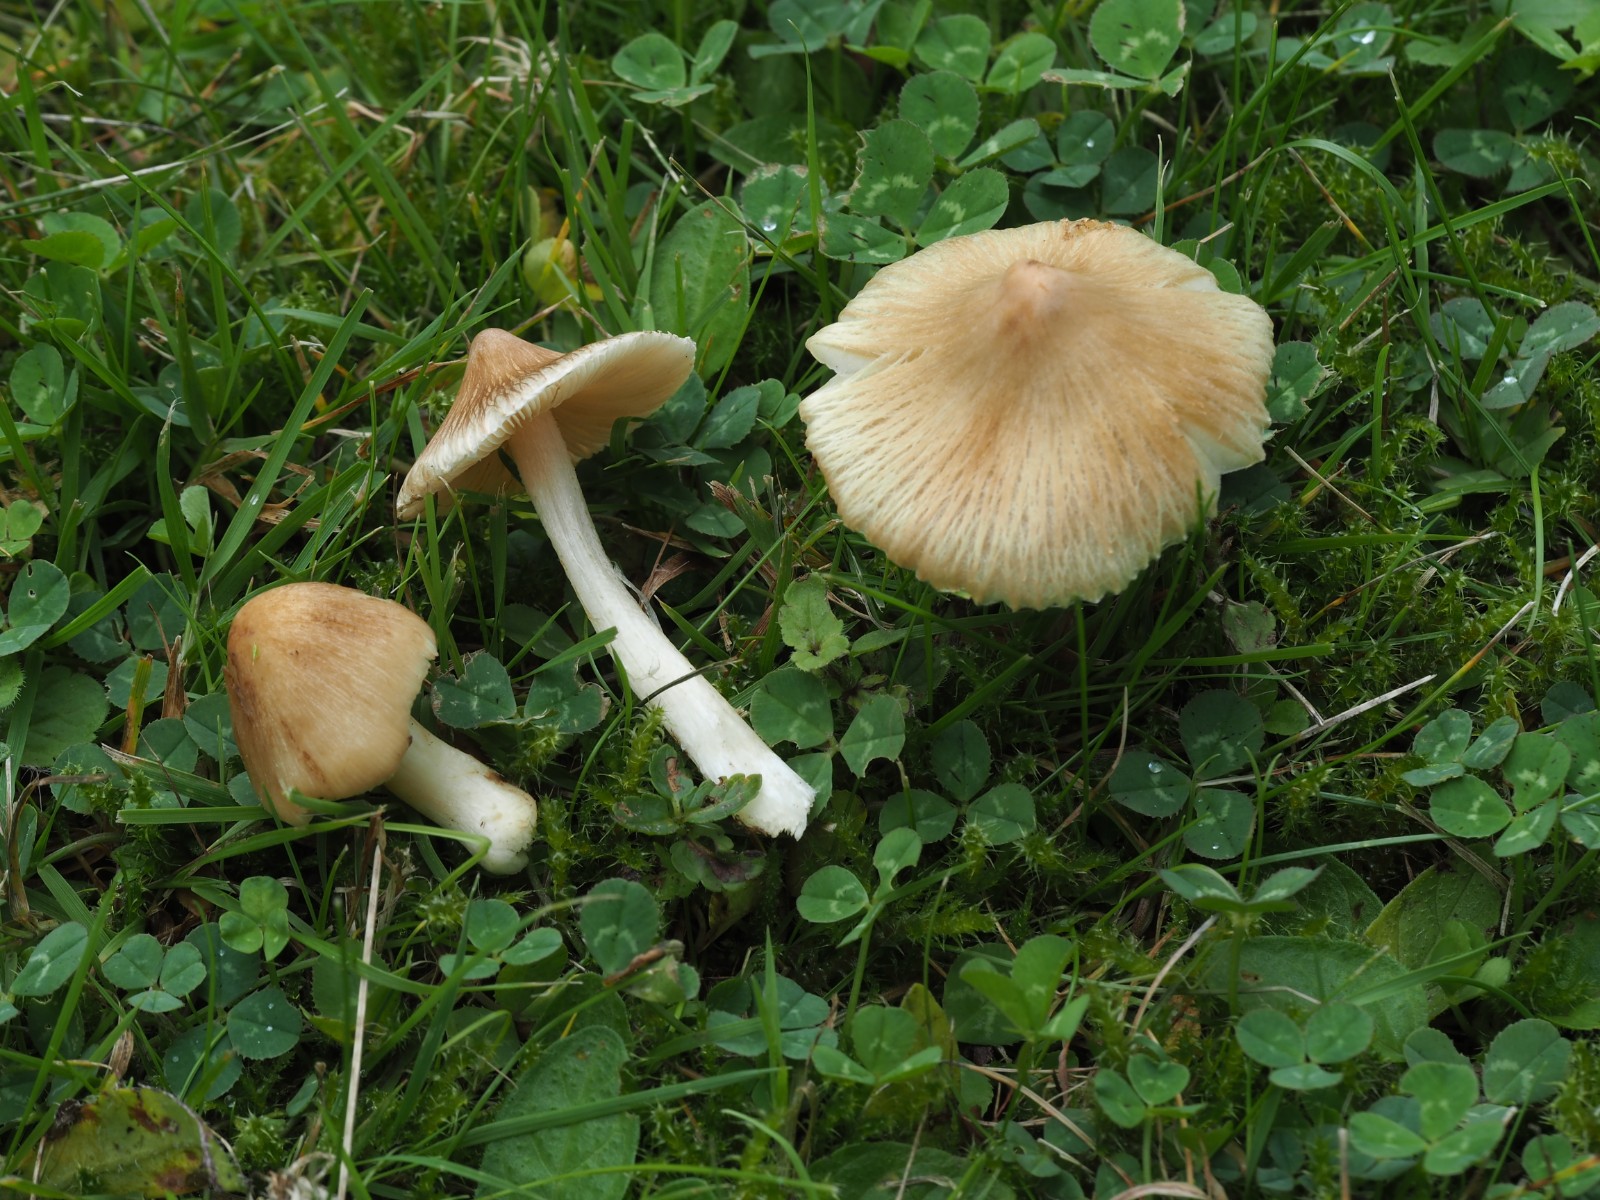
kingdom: Fungi
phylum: Basidiomycota
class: Agaricomycetes
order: Agaricales
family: Inocybaceae
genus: Inocybe
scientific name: Inocybe
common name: trævlhat
